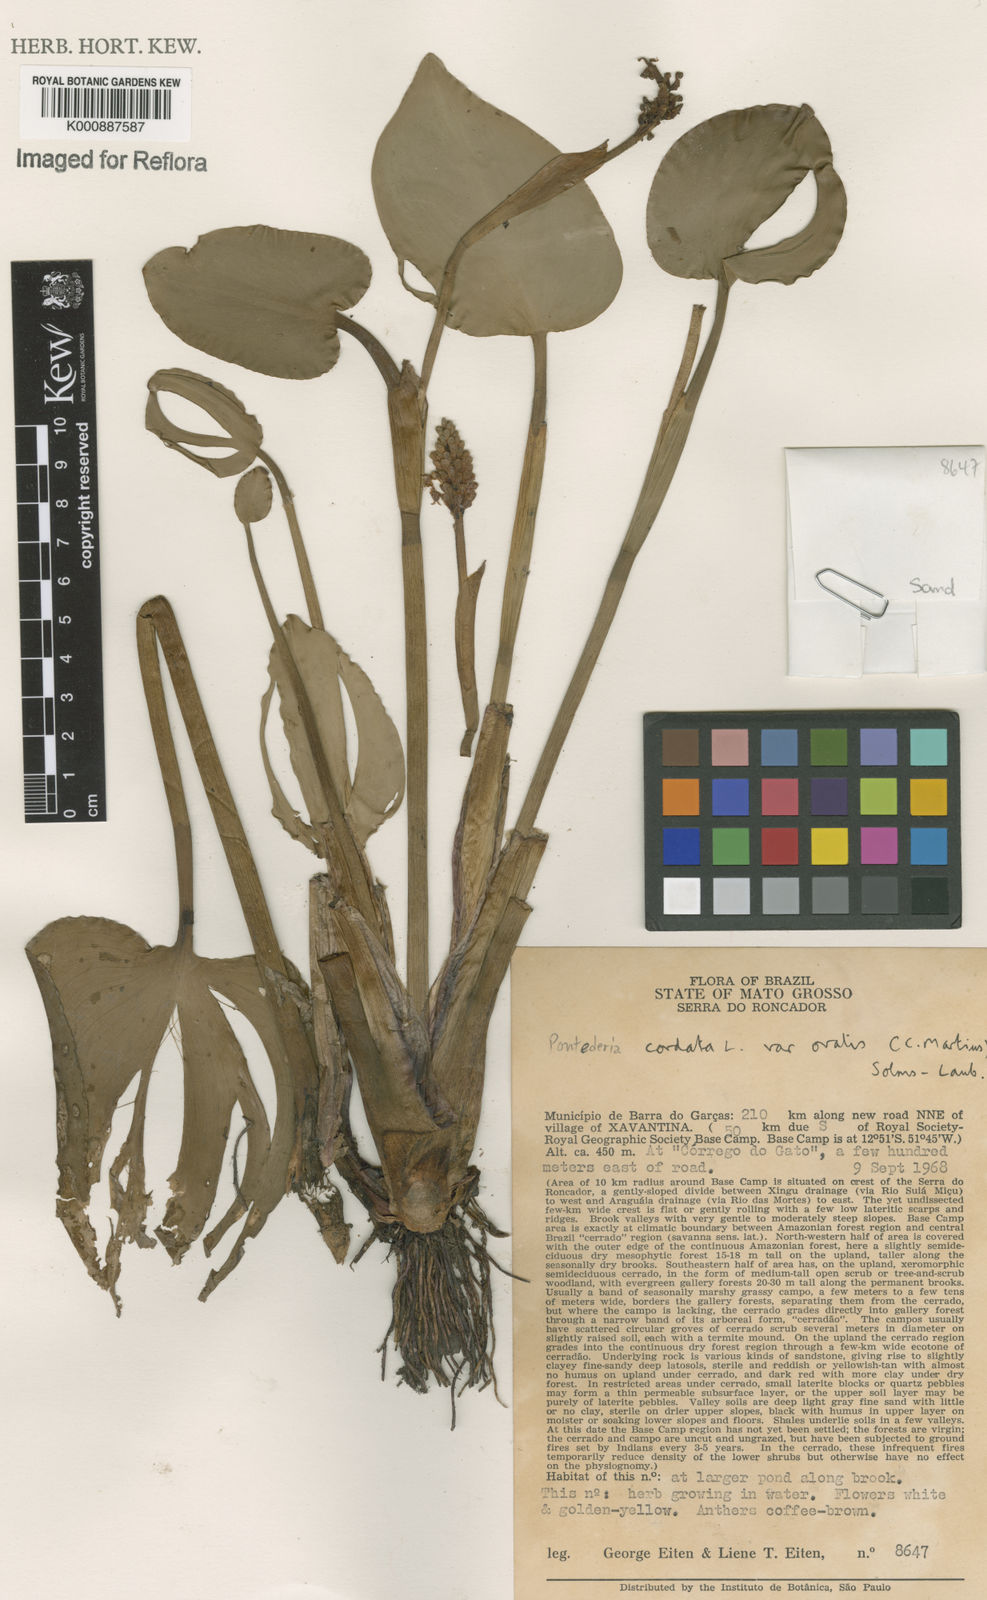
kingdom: Plantae
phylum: Tracheophyta
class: Liliopsida
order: Commelinales
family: Pontederiaceae
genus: Pontederia
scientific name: Pontederia cordata
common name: Pickerelweed
